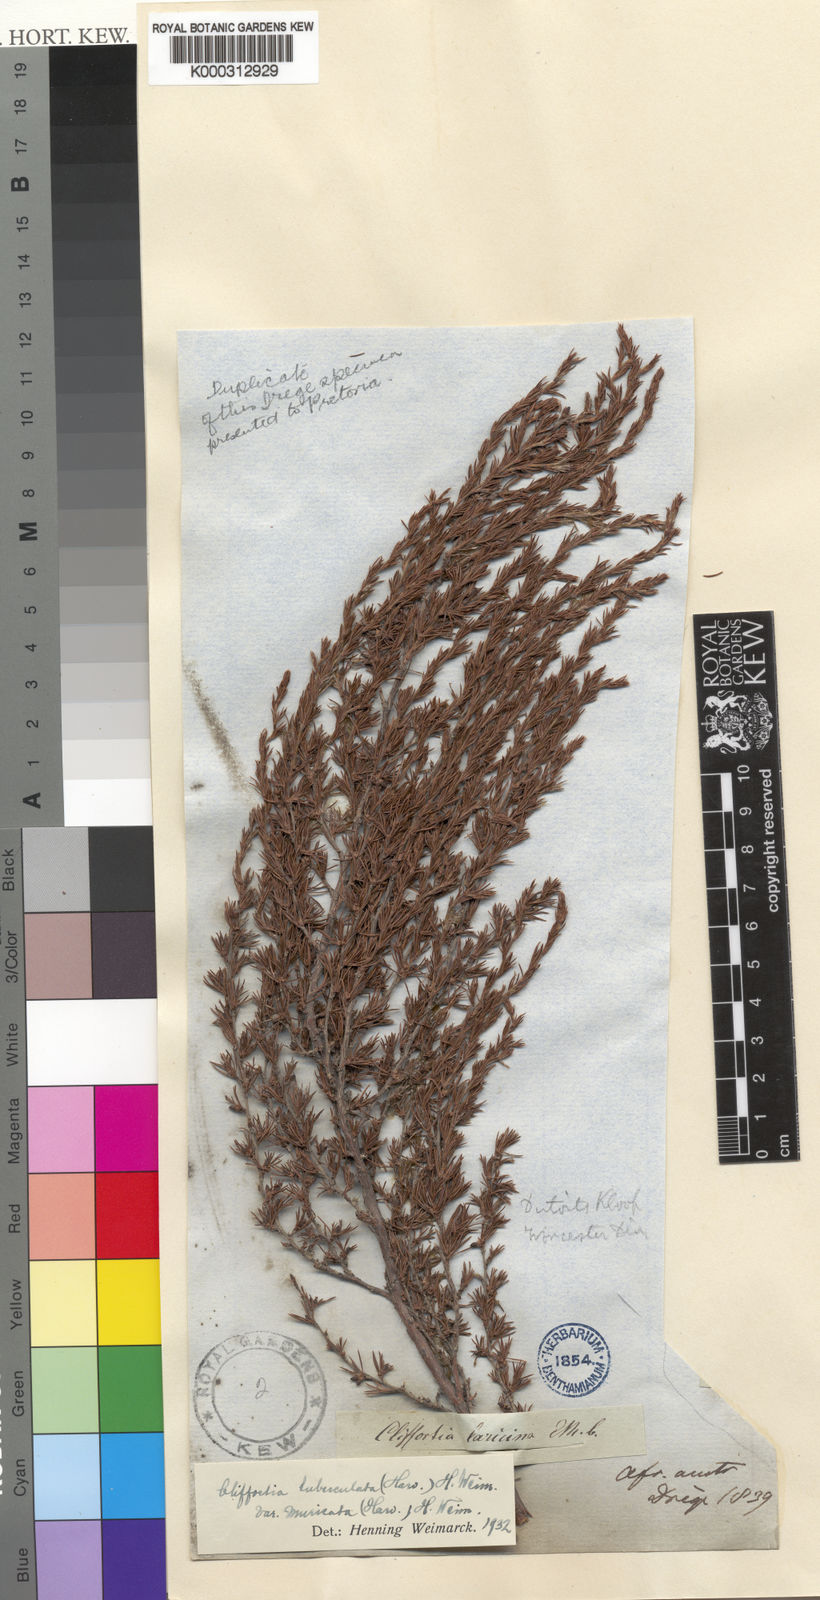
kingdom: Plantae
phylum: Tracheophyta
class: Magnoliopsida
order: Rosales
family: Rosaceae
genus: Cliffortia
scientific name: Cliffortia
